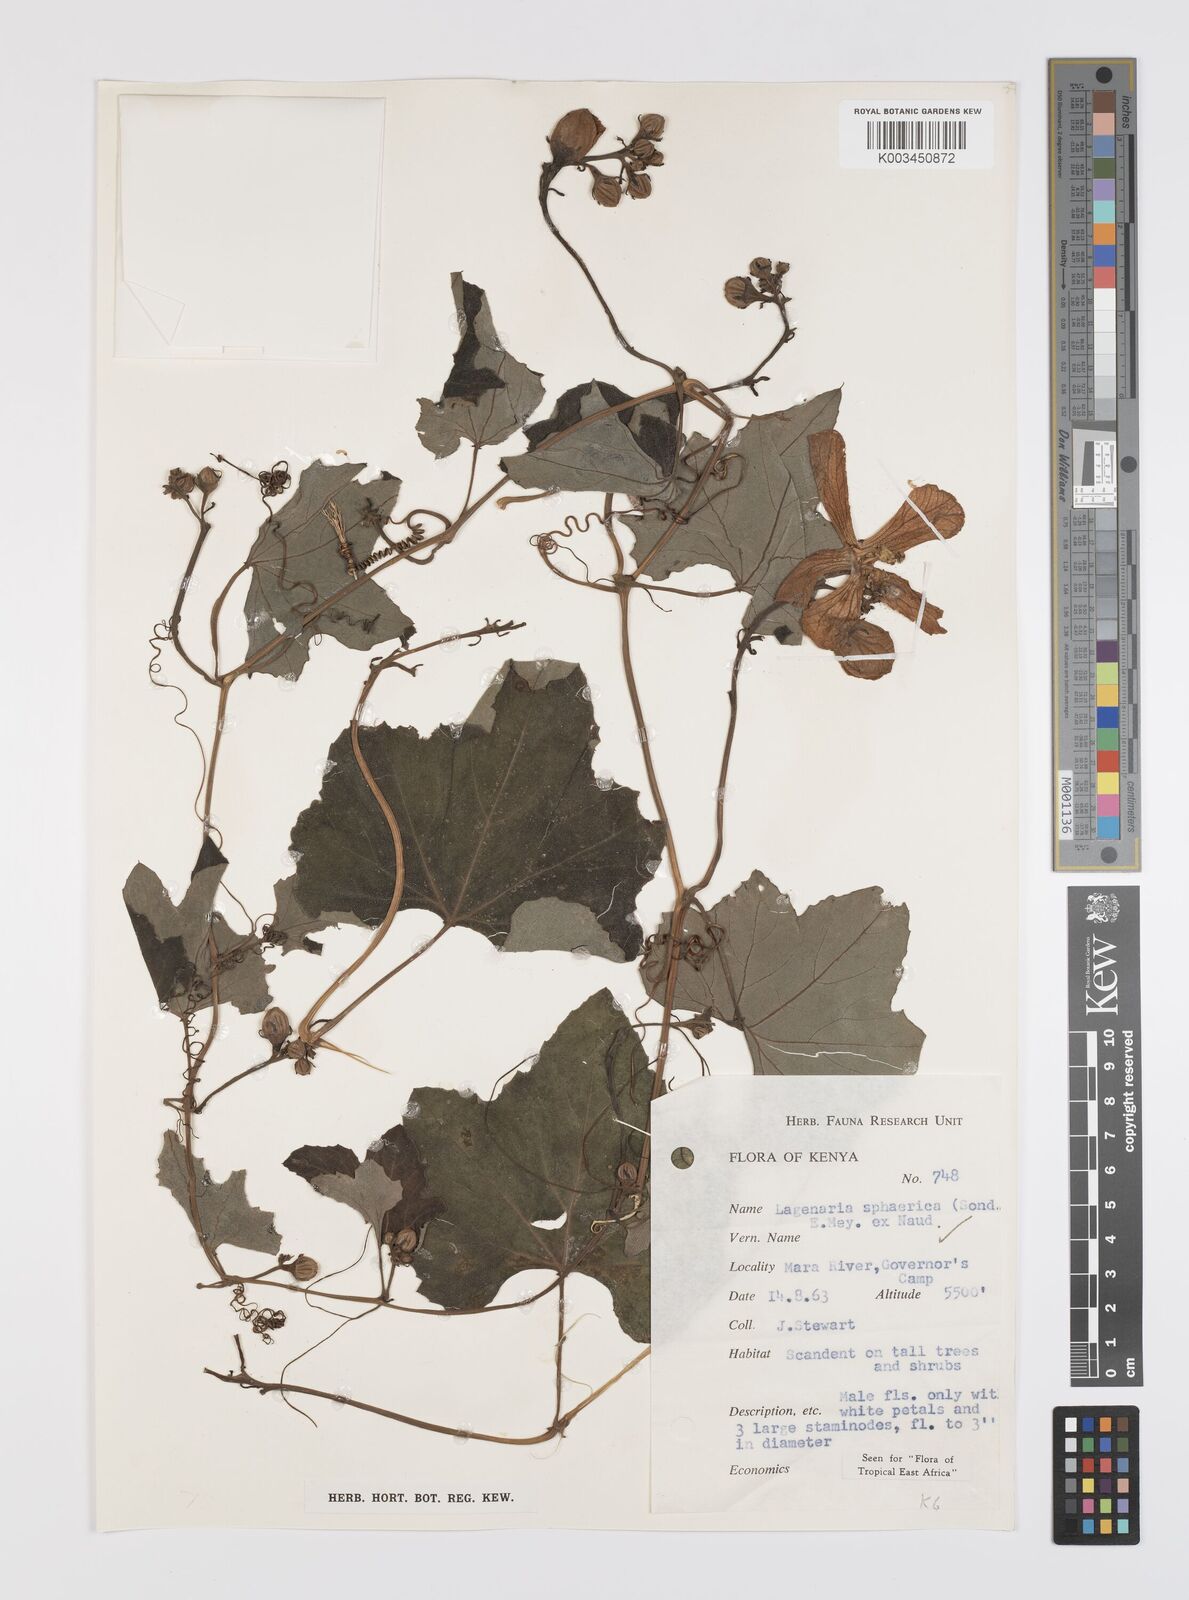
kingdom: Plantae
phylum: Tracheophyta
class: Magnoliopsida
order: Cucurbitales
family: Cucurbitaceae
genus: Lagenaria
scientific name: Lagenaria sphaerica
